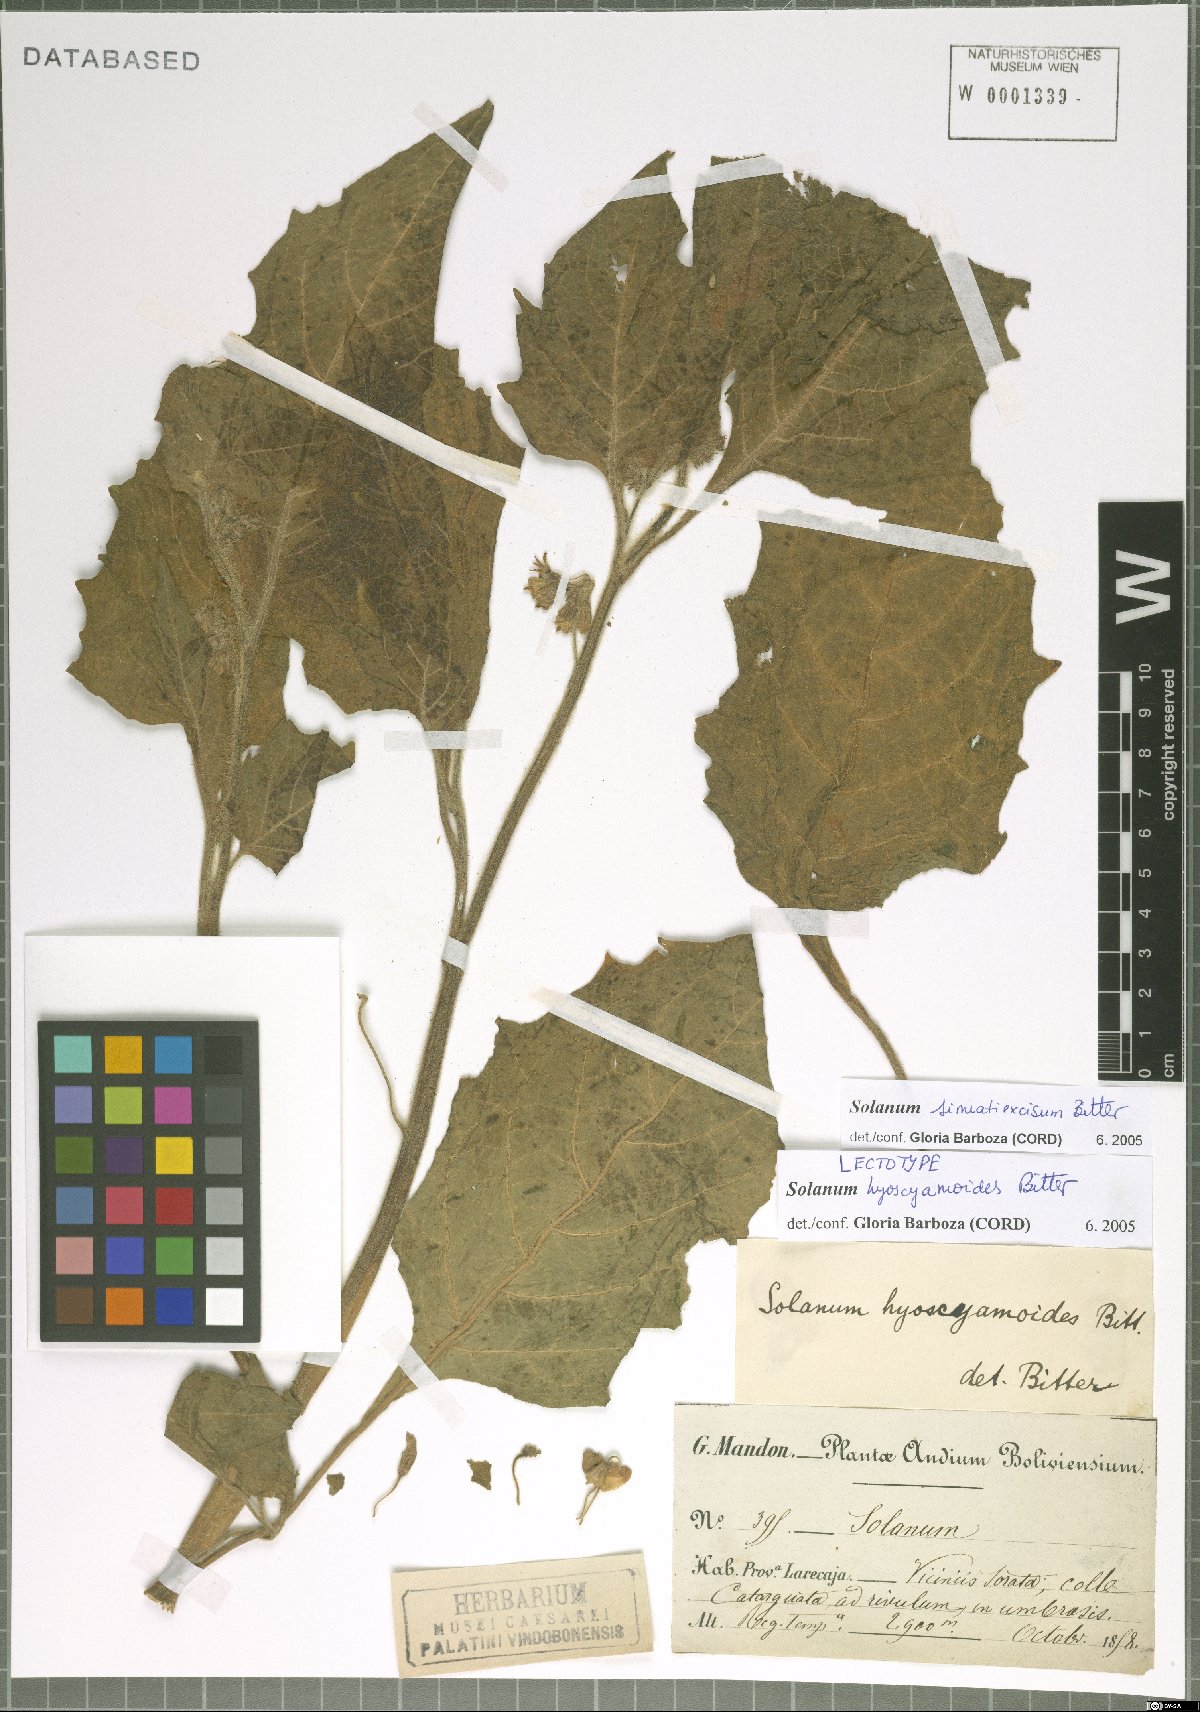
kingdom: Plantae
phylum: Tracheophyta
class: Magnoliopsida
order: Solanales
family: Solanaceae
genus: Solanum
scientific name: Solanum sinuatiexcisum
